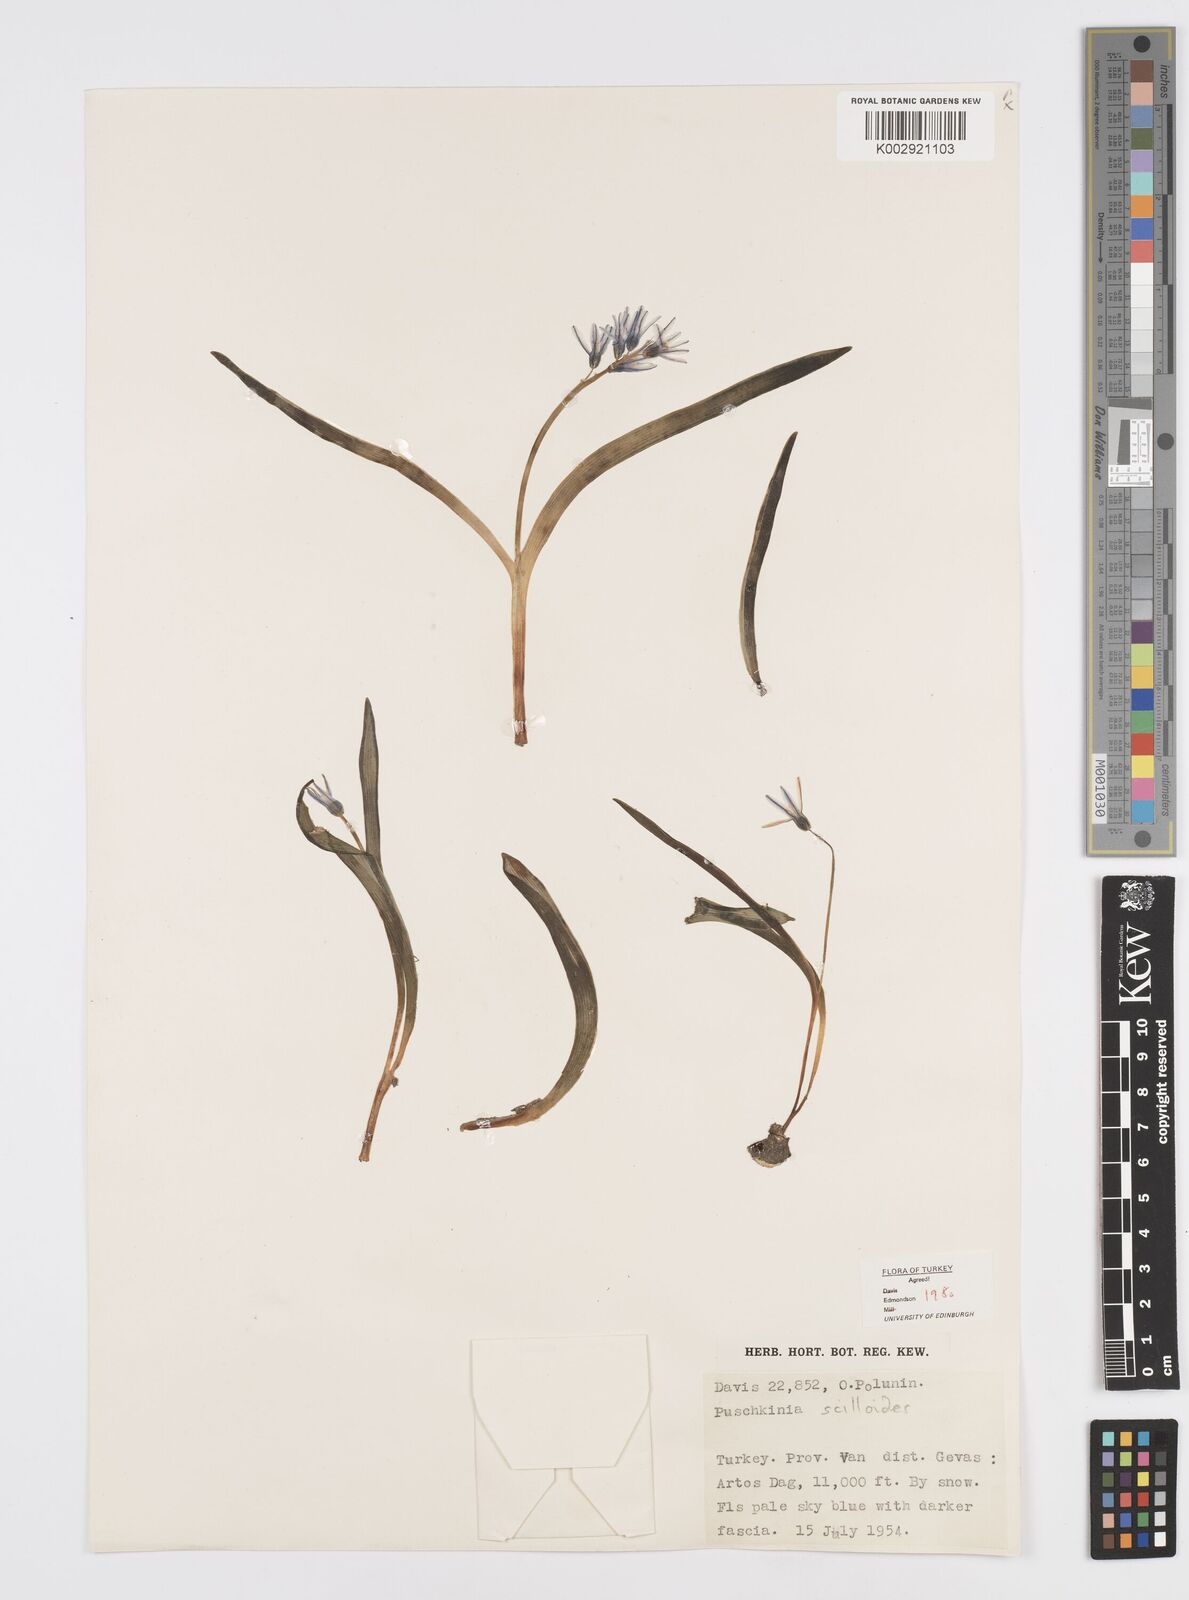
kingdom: Plantae
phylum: Tracheophyta
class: Liliopsida
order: Asparagales
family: Asparagaceae
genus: Puschkinia
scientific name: Puschkinia scilloides
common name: Striped squill
